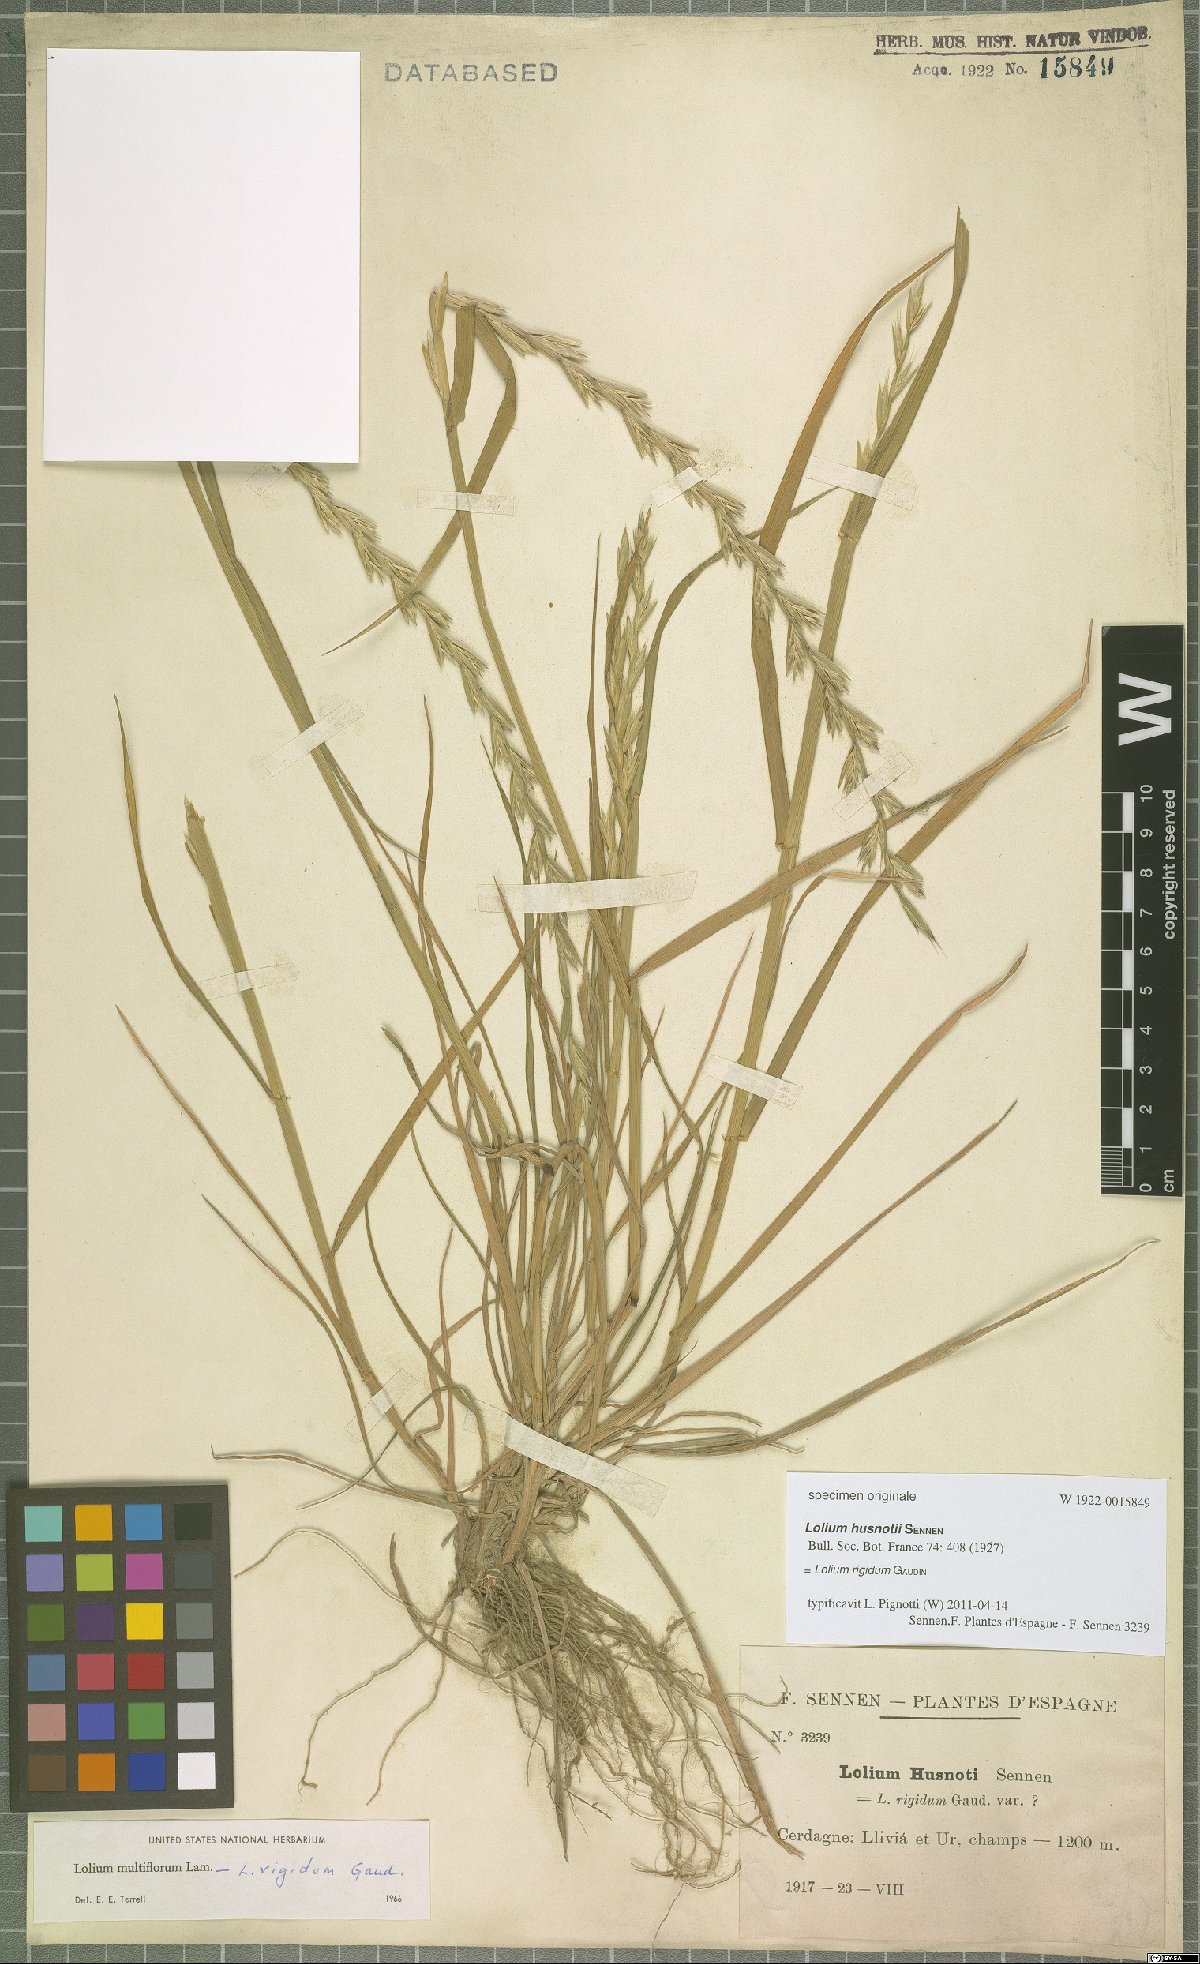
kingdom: Plantae
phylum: Tracheophyta
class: Liliopsida
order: Poales
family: Poaceae
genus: Lolium
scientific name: Lolium rigidum
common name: Wimmera ryegrass
